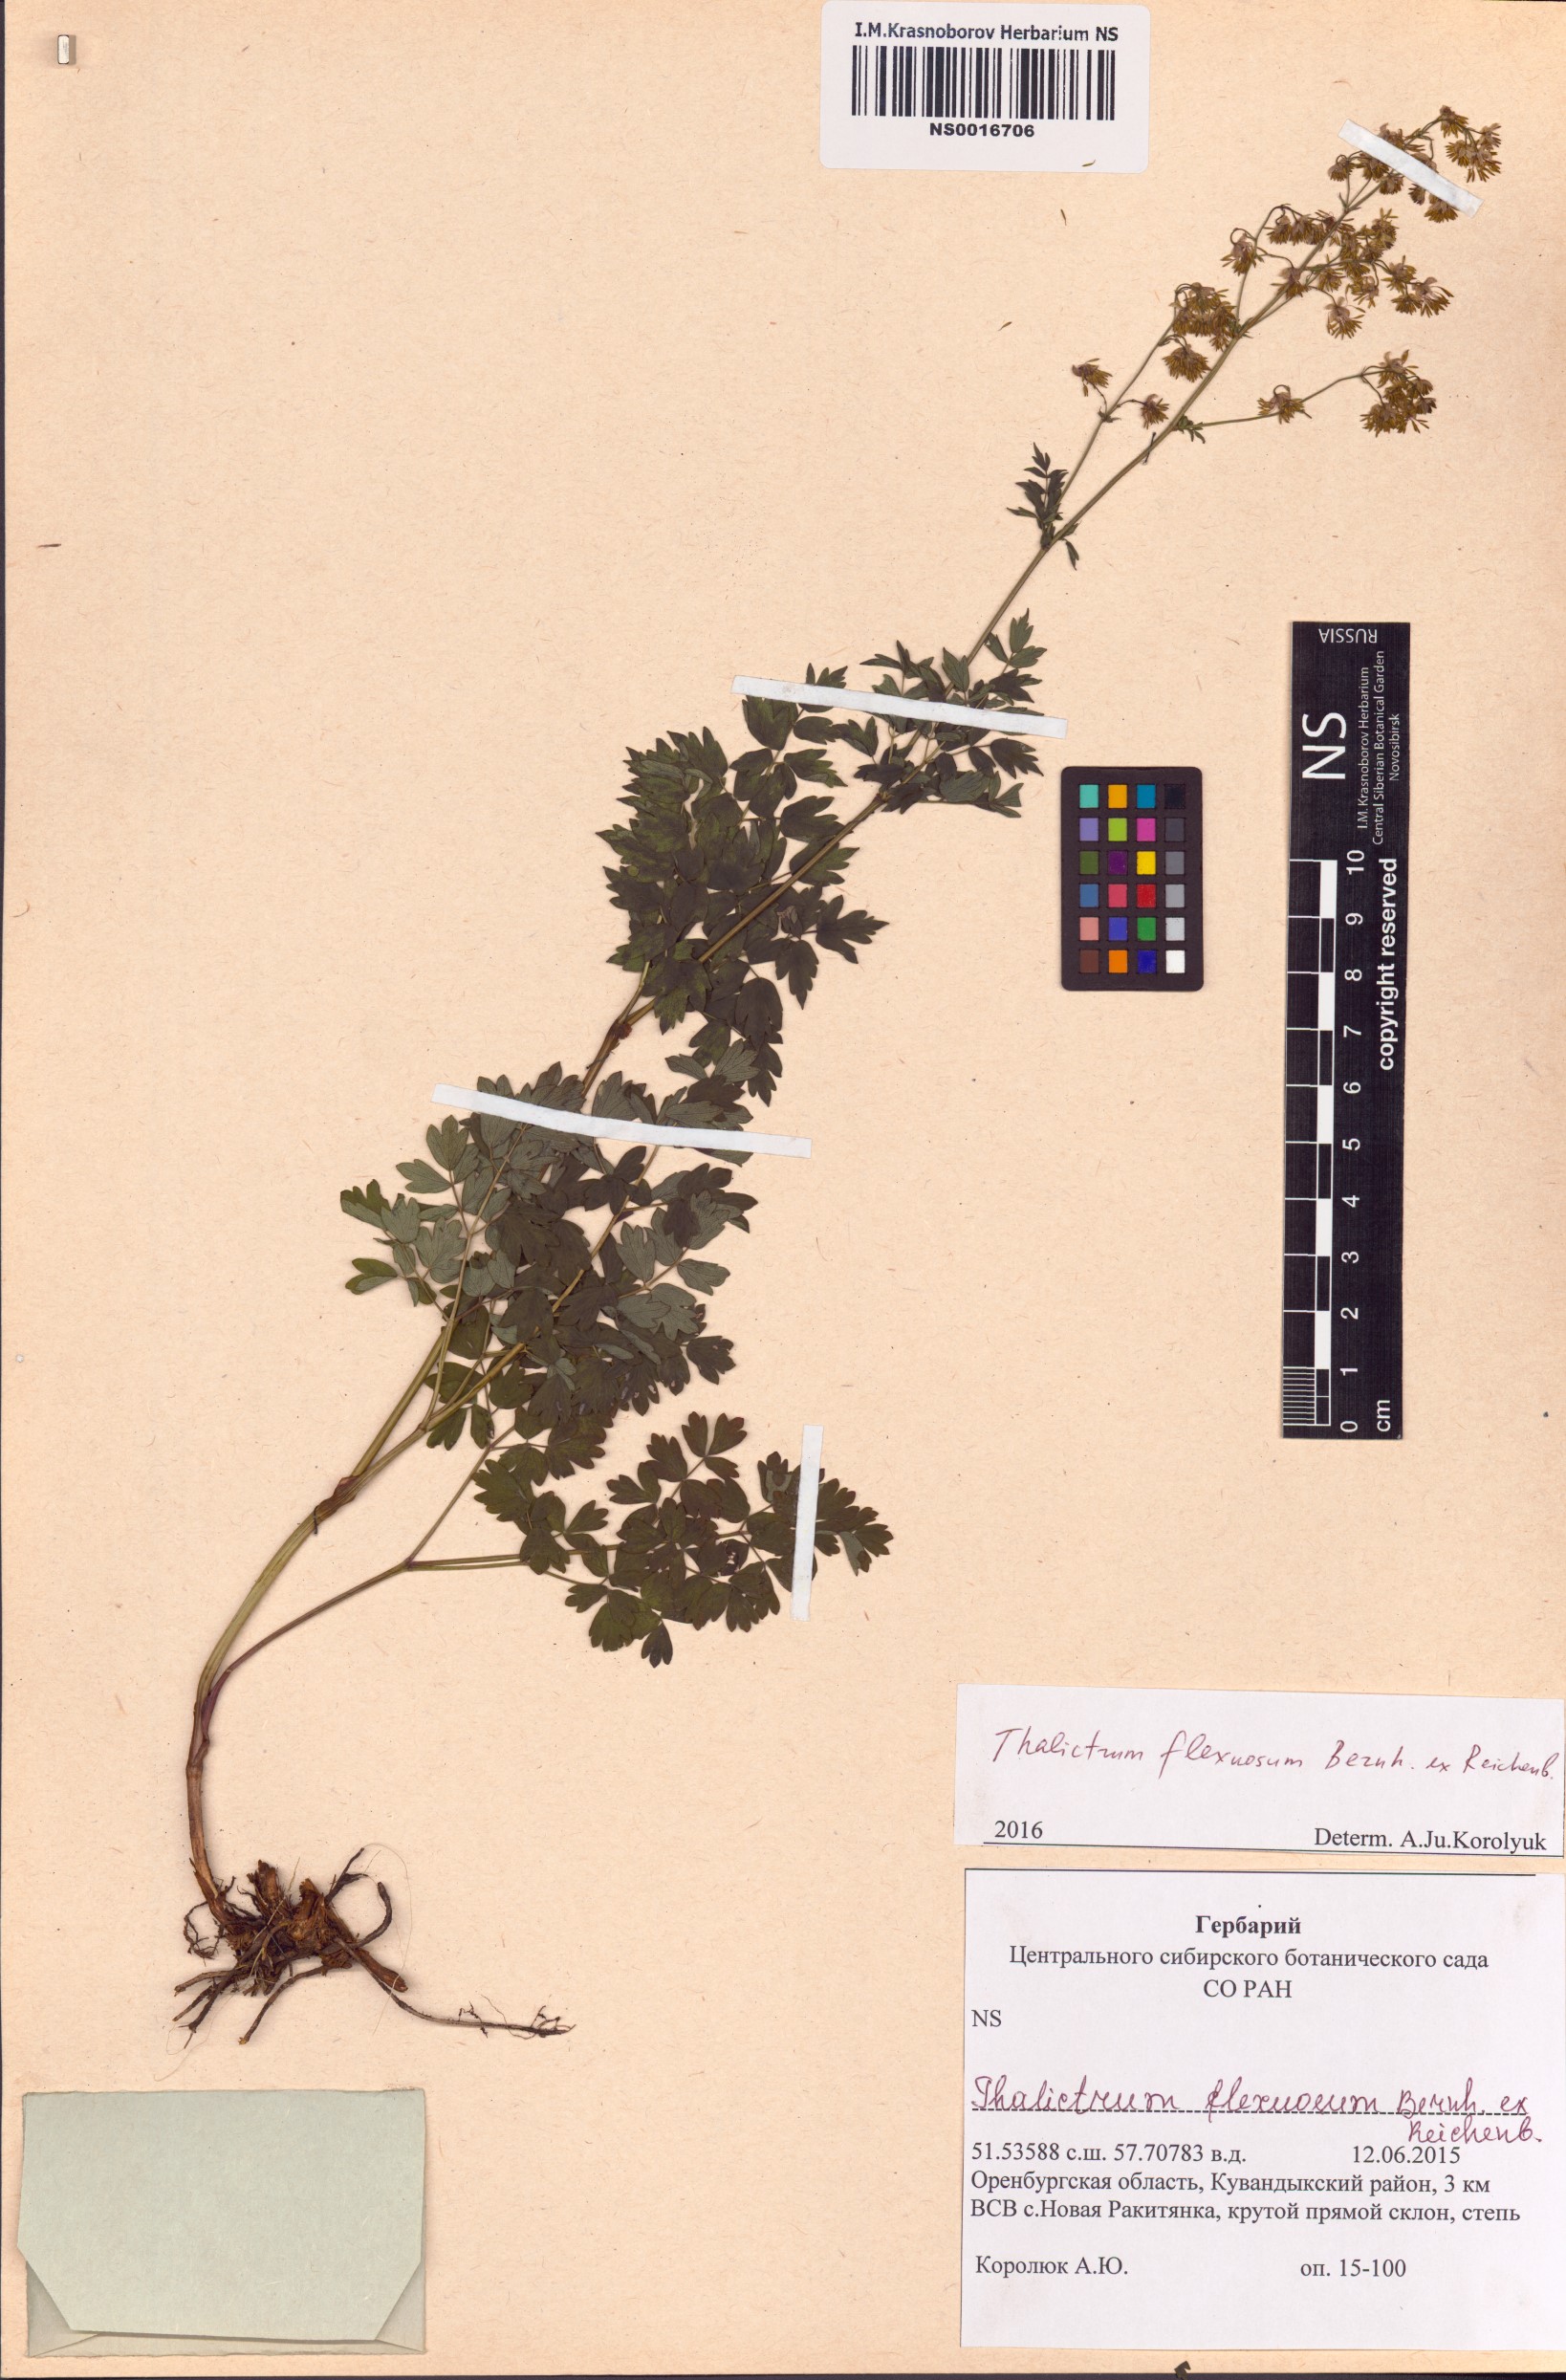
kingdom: Plantae
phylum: Tracheophyta
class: Magnoliopsida
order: Ranunculales
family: Ranunculaceae
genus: Thalictrum
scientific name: Thalictrum minus
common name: Lesser meadow-rue
